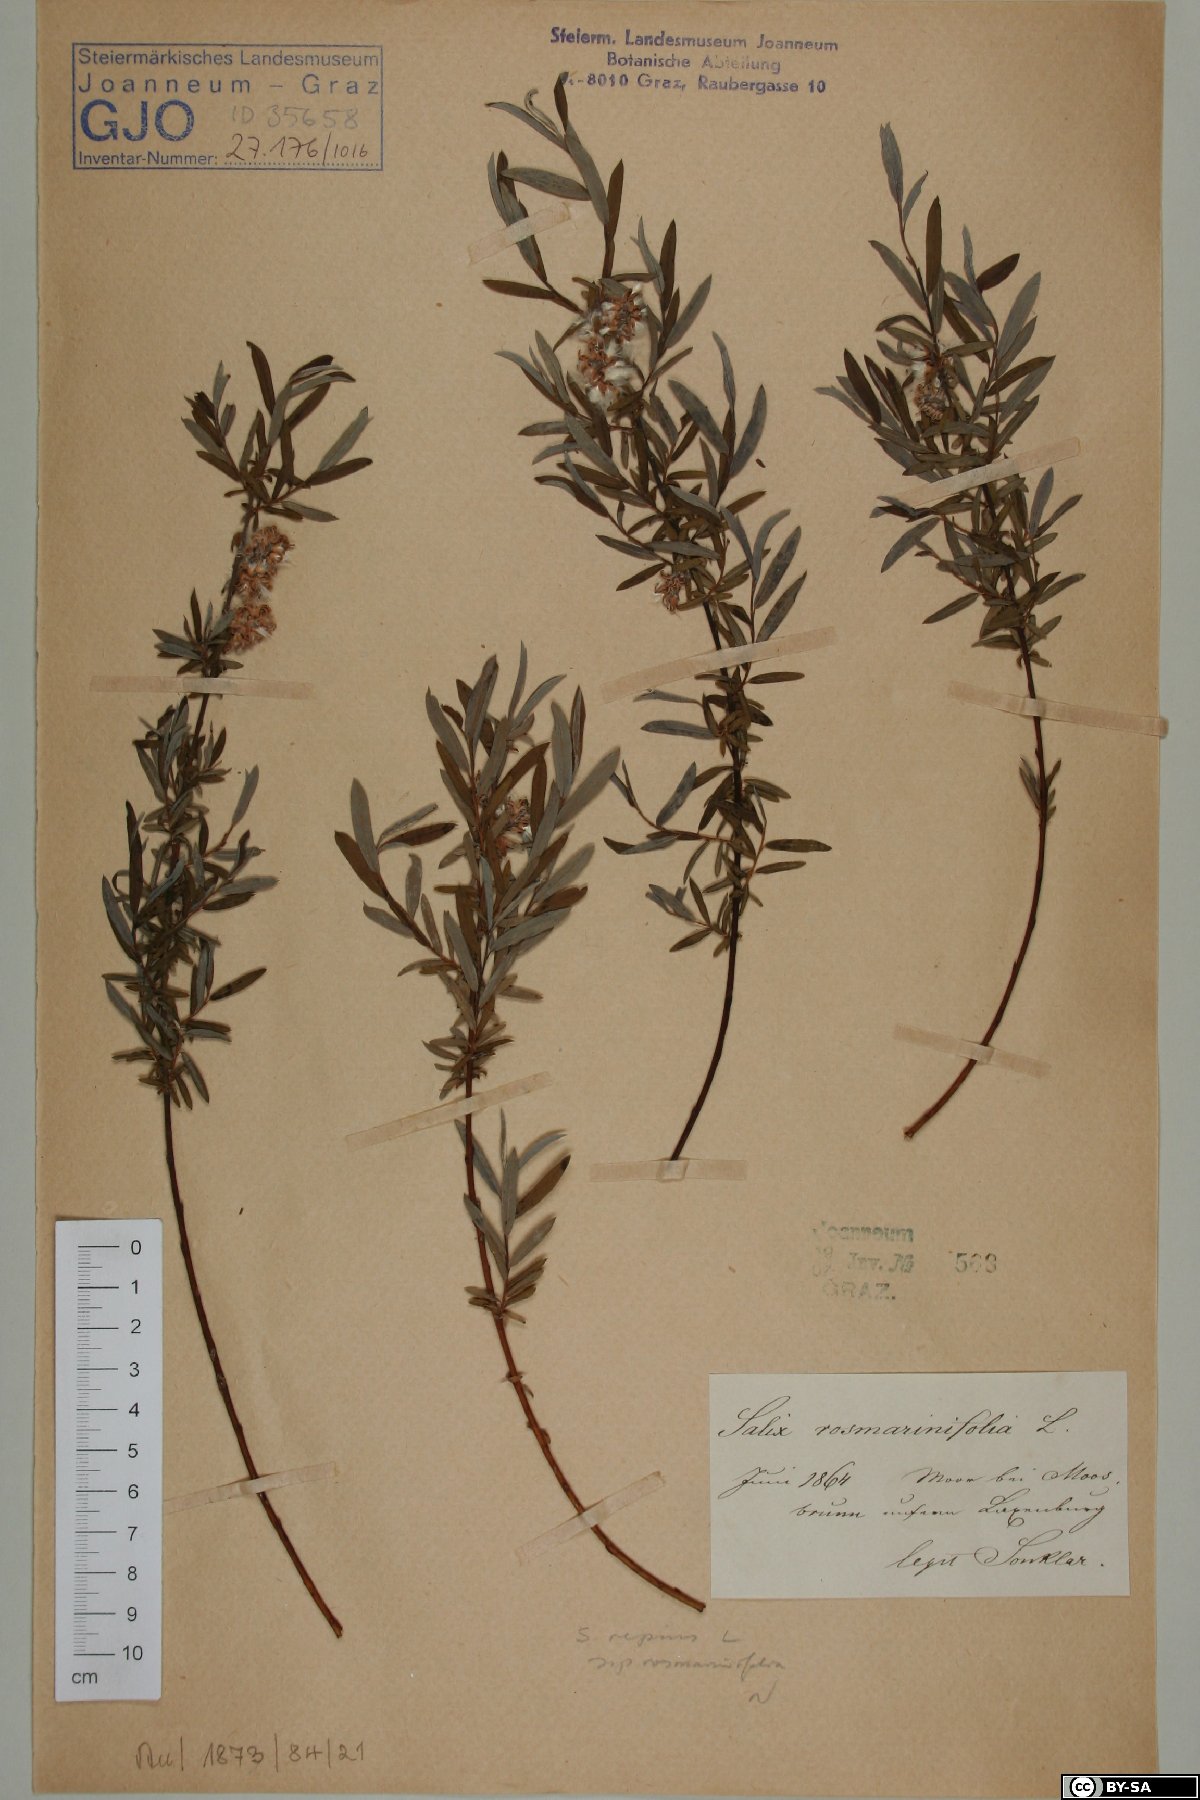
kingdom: Plantae
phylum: Tracheophyta
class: Magnoliopsida
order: Malpighiales
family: Salicaceae
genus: Salix
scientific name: Salix repens
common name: Creeping willow
